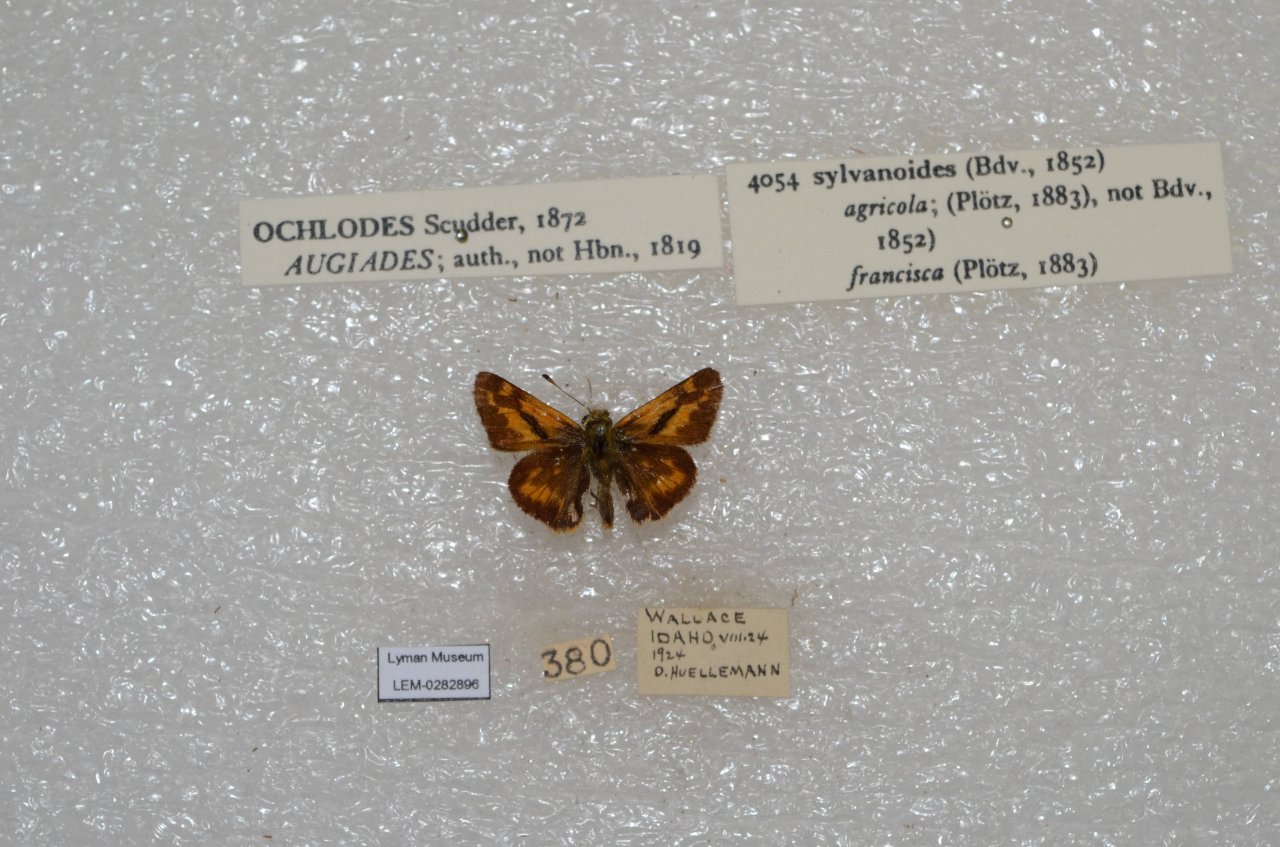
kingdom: Animalia
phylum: Arthropoda
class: Insecta
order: Lepidoptera
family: Hesperiidae
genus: Ochlodes
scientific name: Ochlodes sylvanoides
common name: Woodland Skipper
